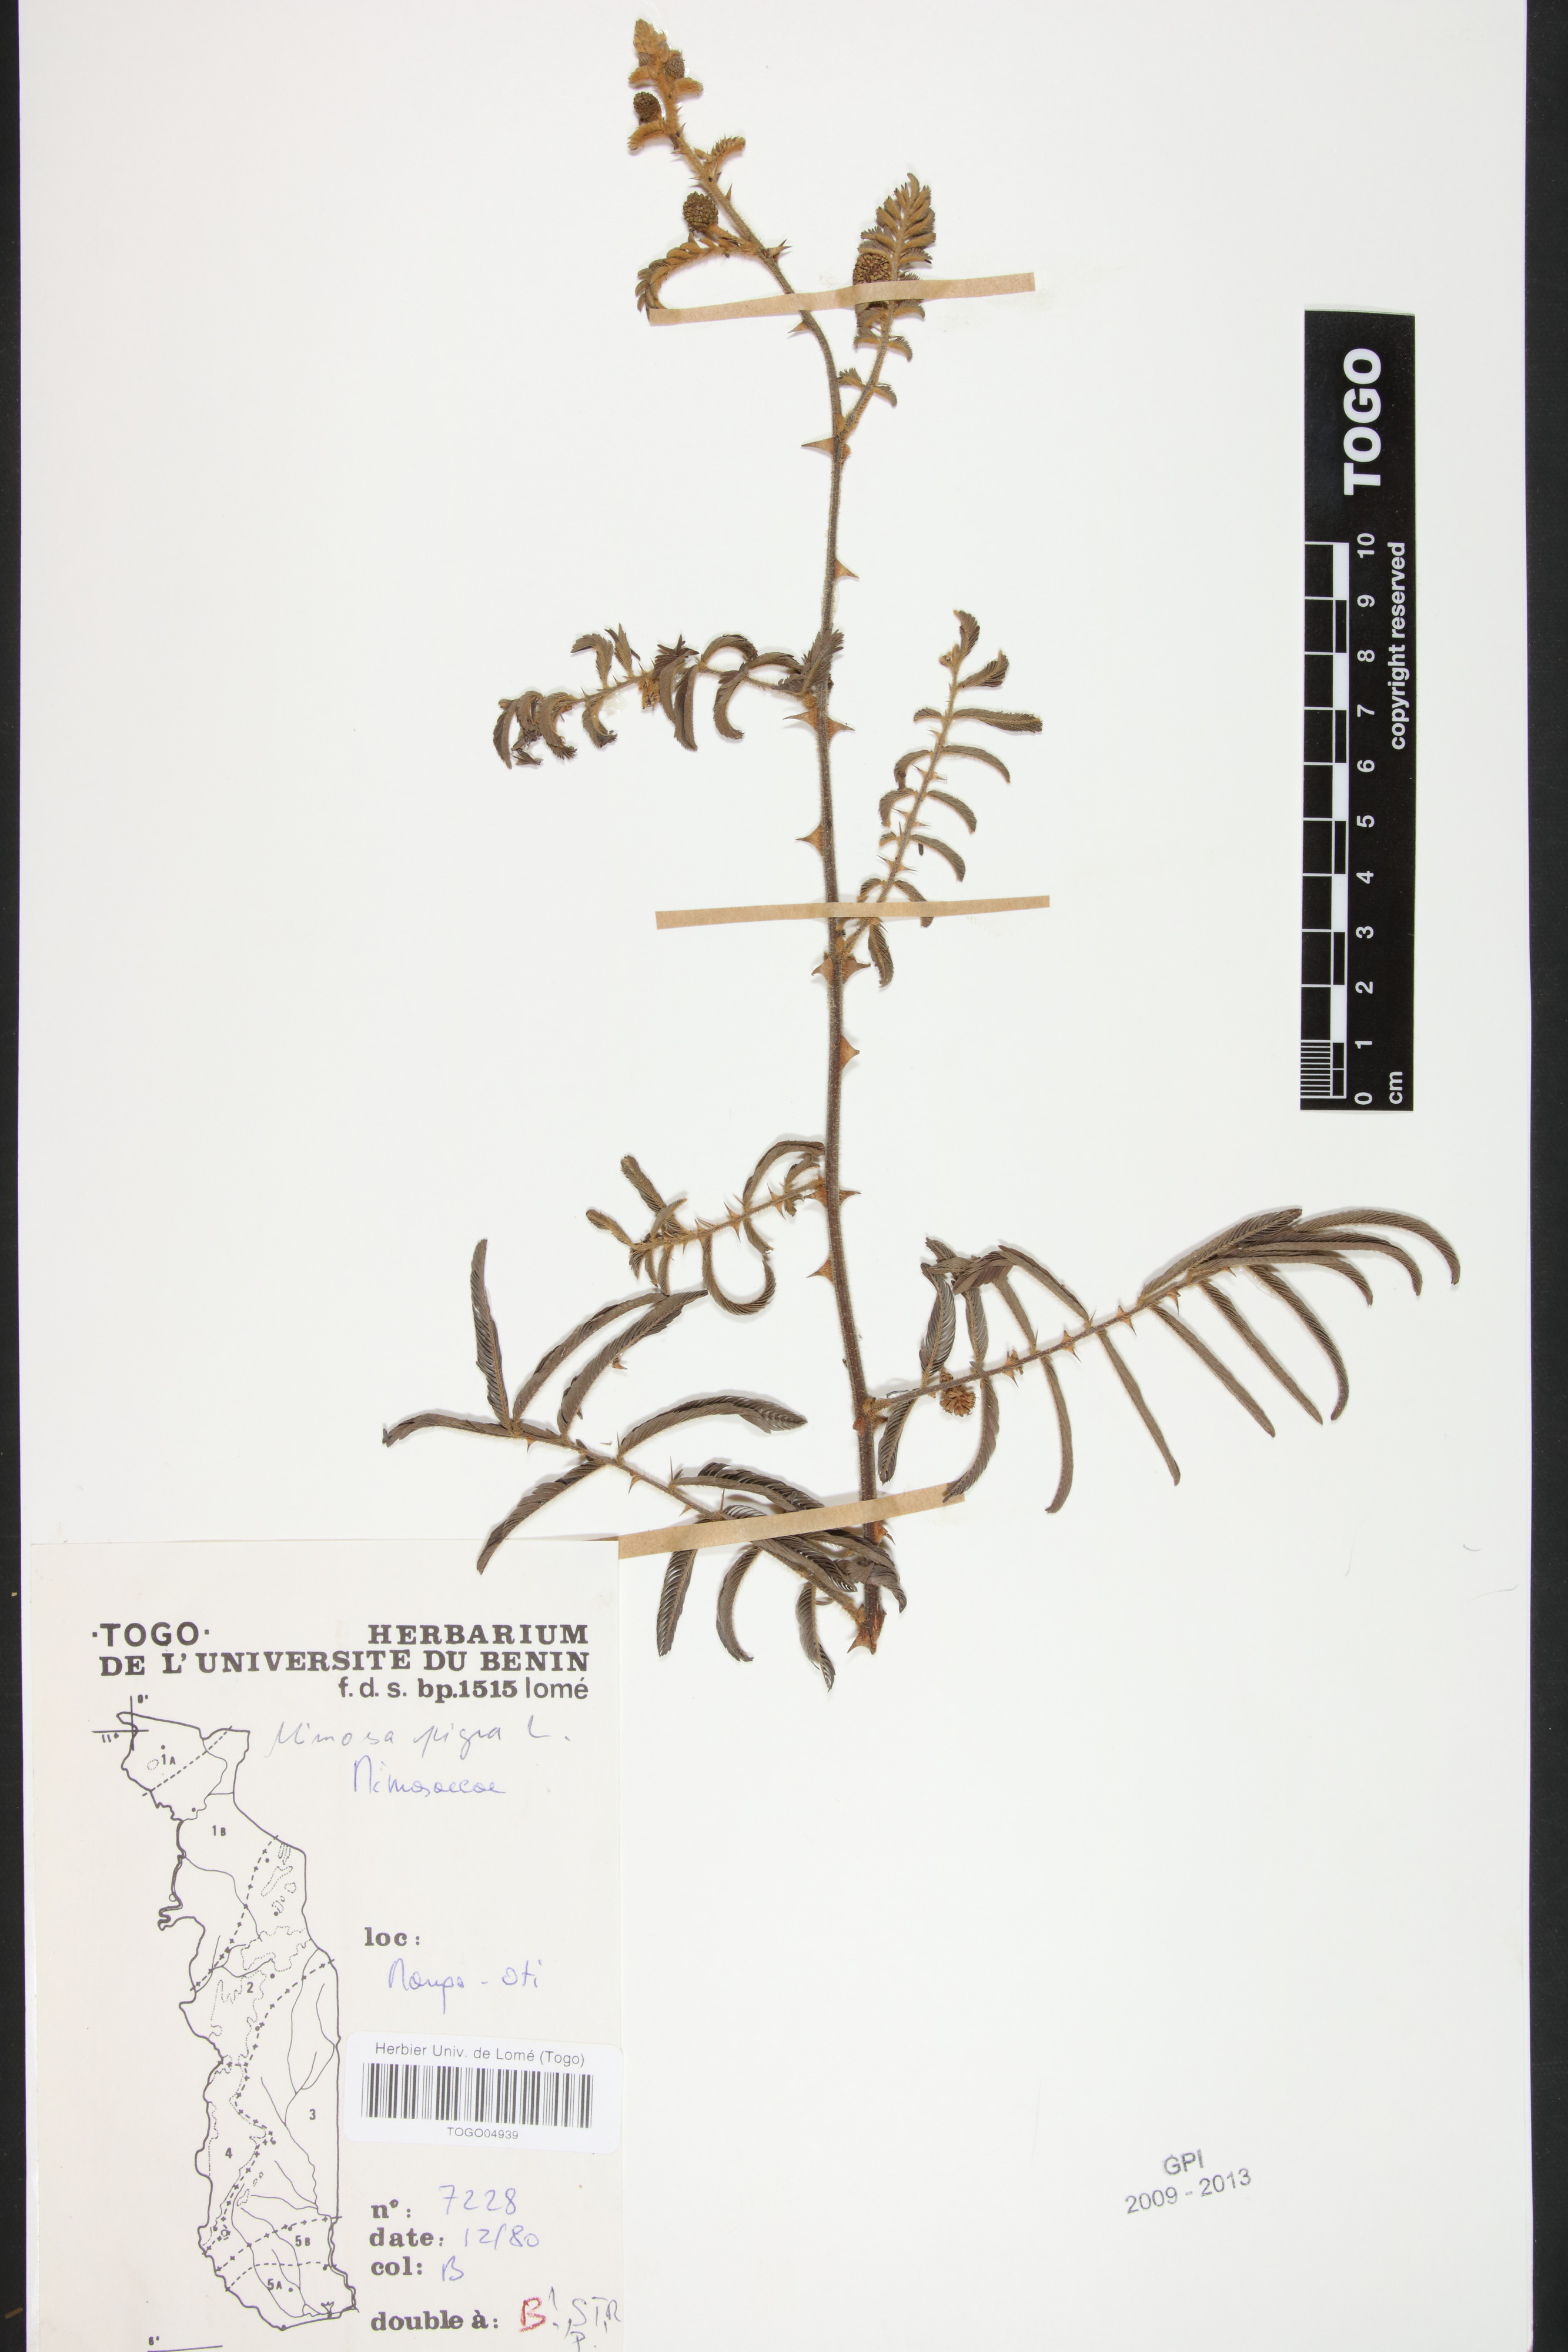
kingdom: Plantae
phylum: Tracheophyta
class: Magnoliopsida
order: Fabales
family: Fabaceae
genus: Mimosa
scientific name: Mimosa pigra
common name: Black mimosa
